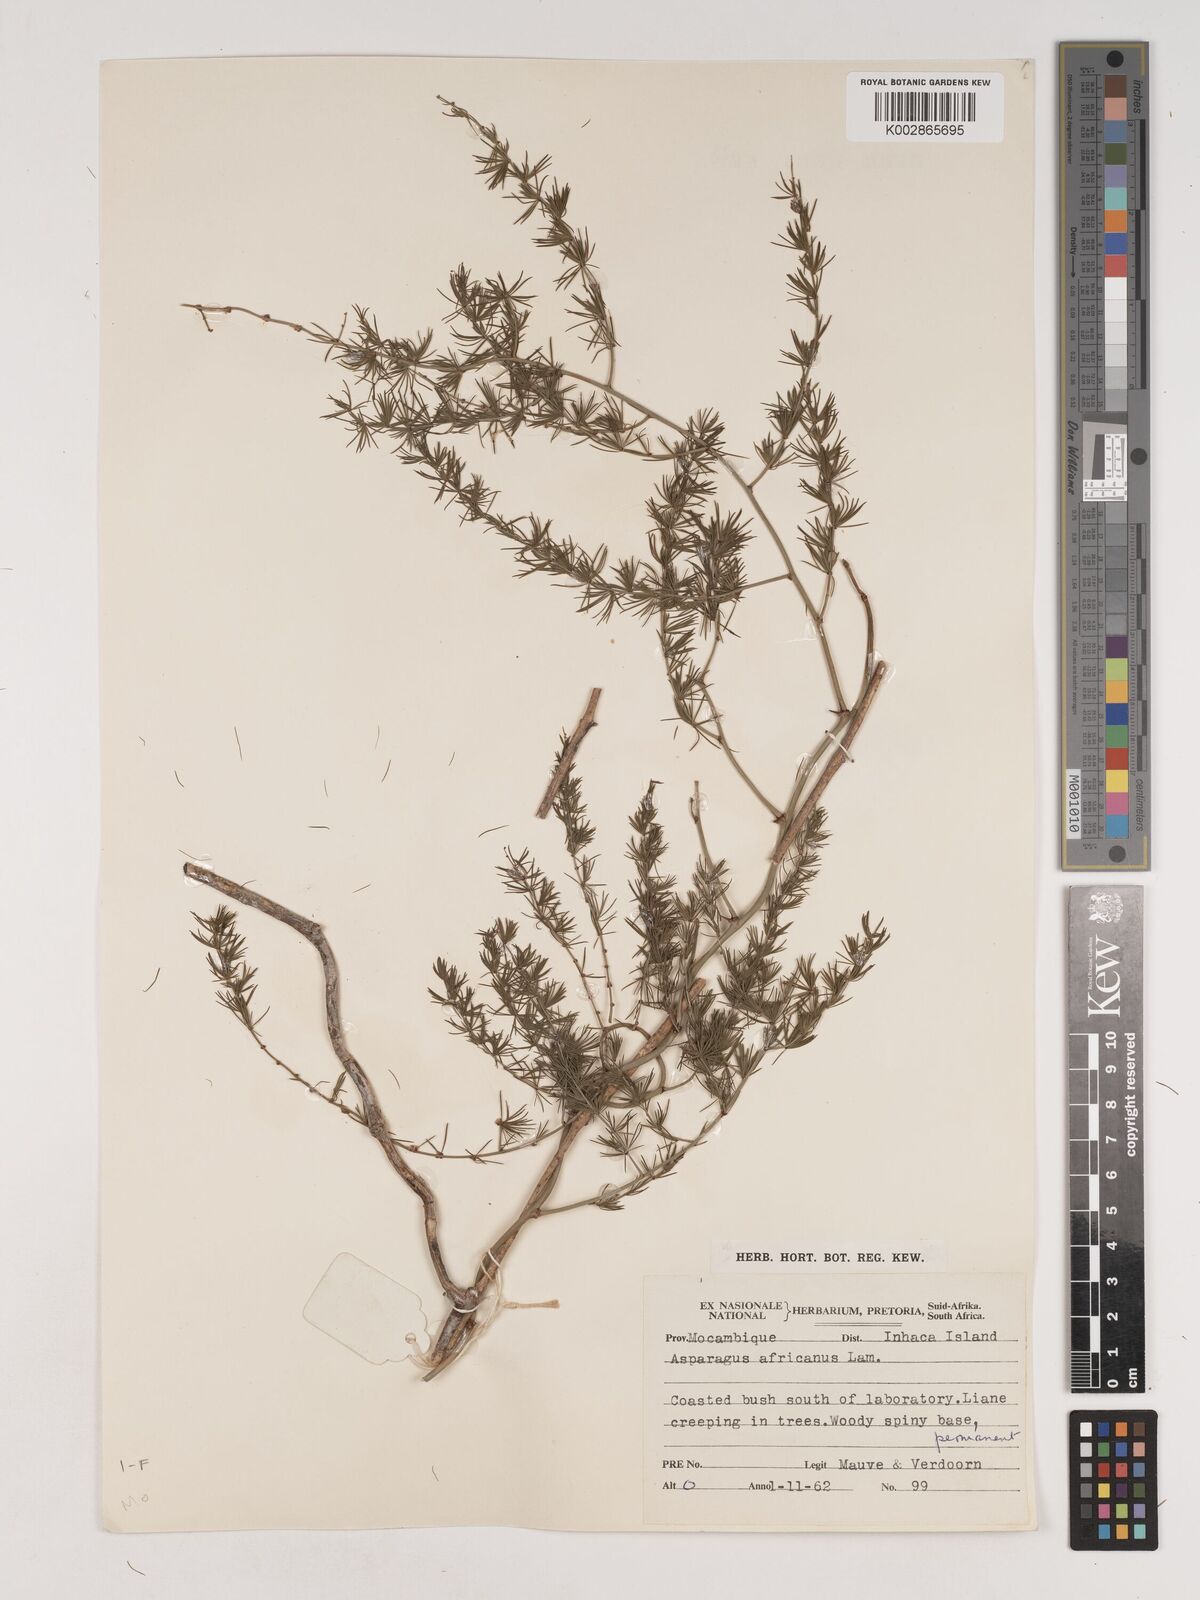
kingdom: Plantae
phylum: Tracheophyta
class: Liliopsida
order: Asparagales
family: Asparagaceae
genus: Asparagus
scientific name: Asparagus
